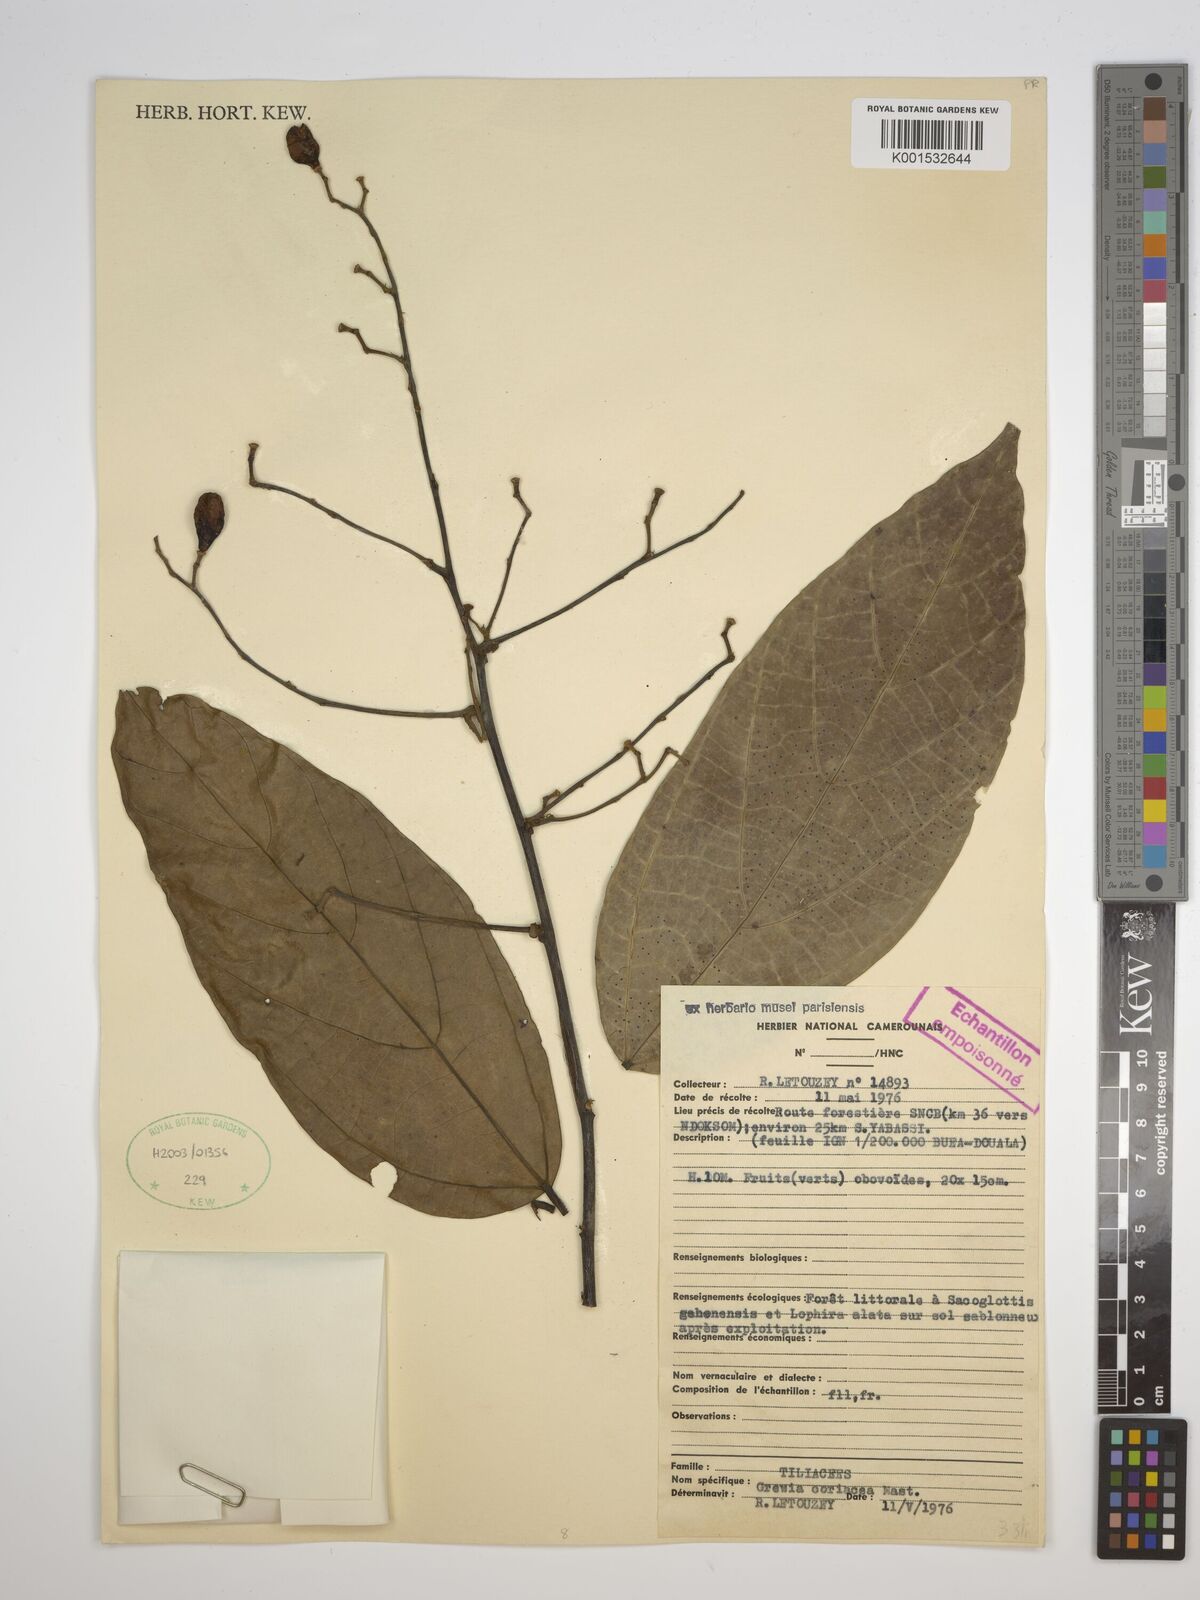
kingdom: Plantae
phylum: Tracheophyta
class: Magnoliopsida
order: Malvales
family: Malvaceae
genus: Microcos
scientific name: Microcos coriacea
